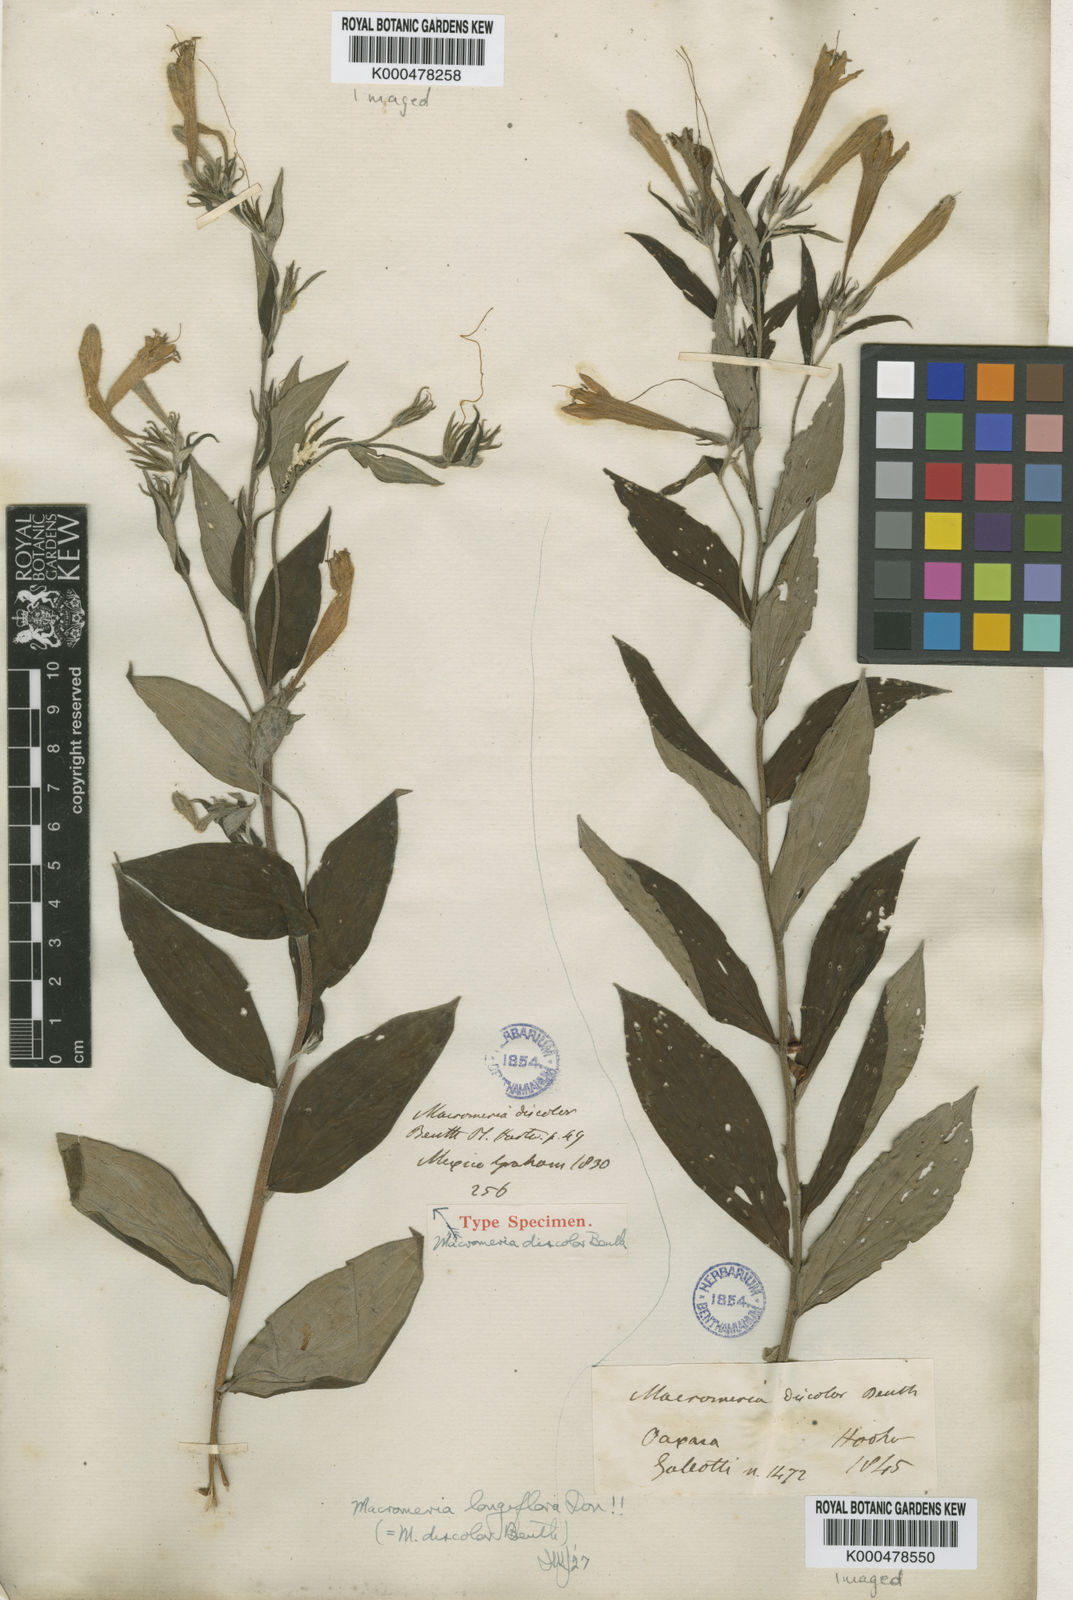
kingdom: Animalia
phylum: Arthropoda
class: Insecta
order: Hymenoptera
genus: Macromeria
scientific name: Macromeria
